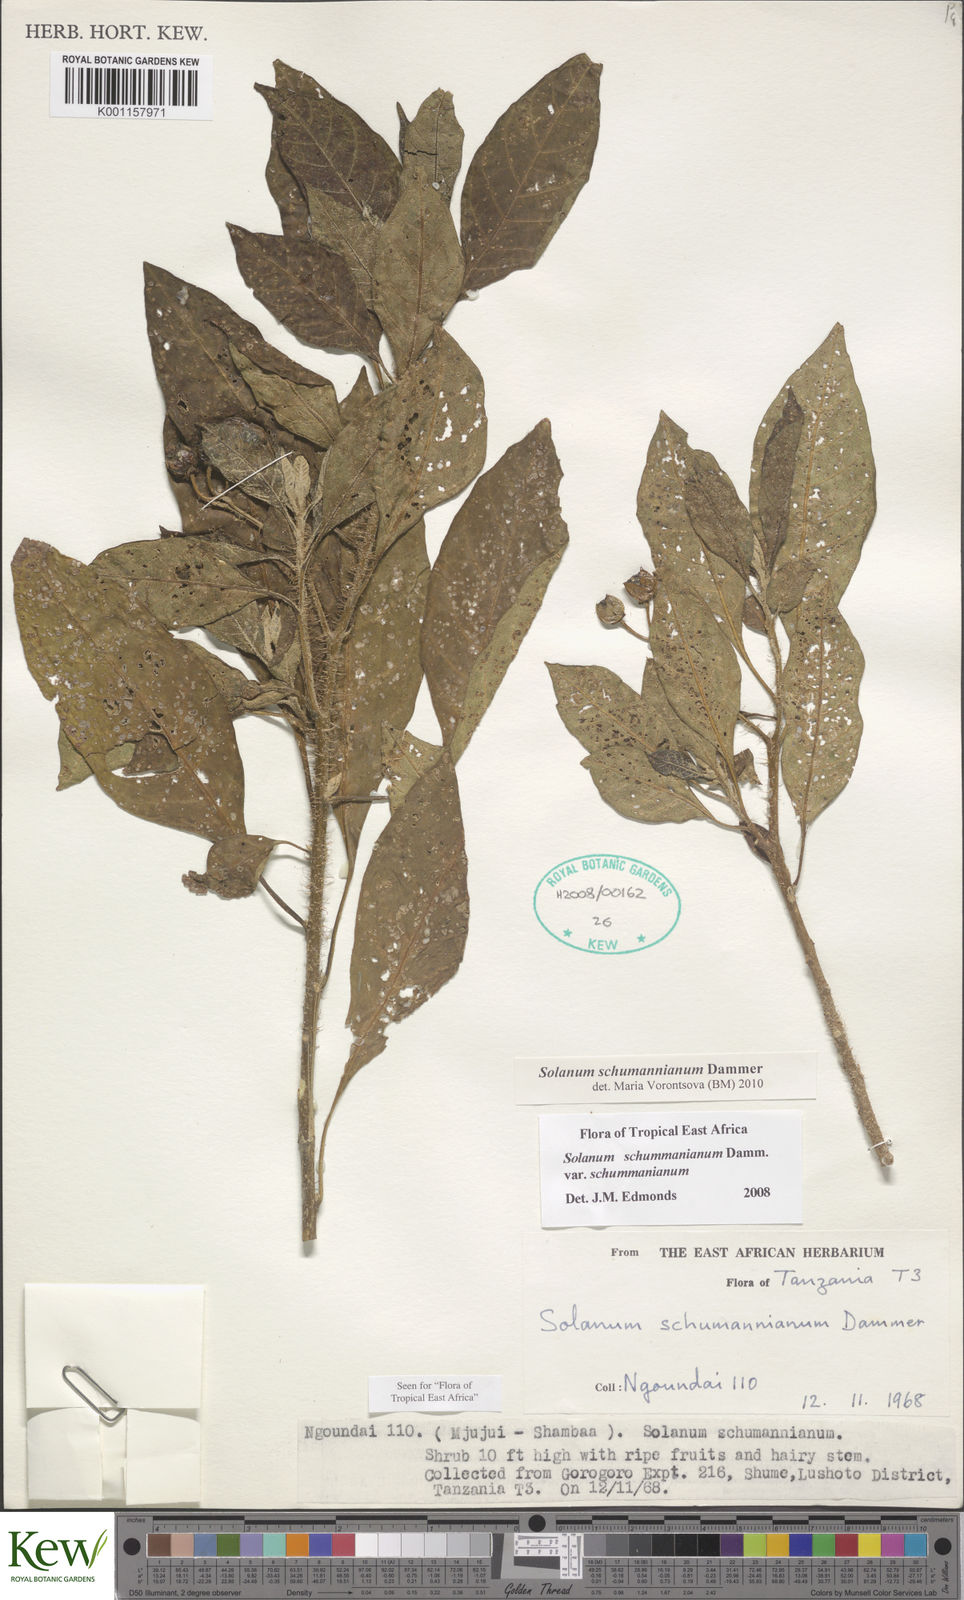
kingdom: Plantae
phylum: Tracheophyta
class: Magnoliopsida
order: Solanales
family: Solanaceae
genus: Solanum
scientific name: Solanum schumannianum
